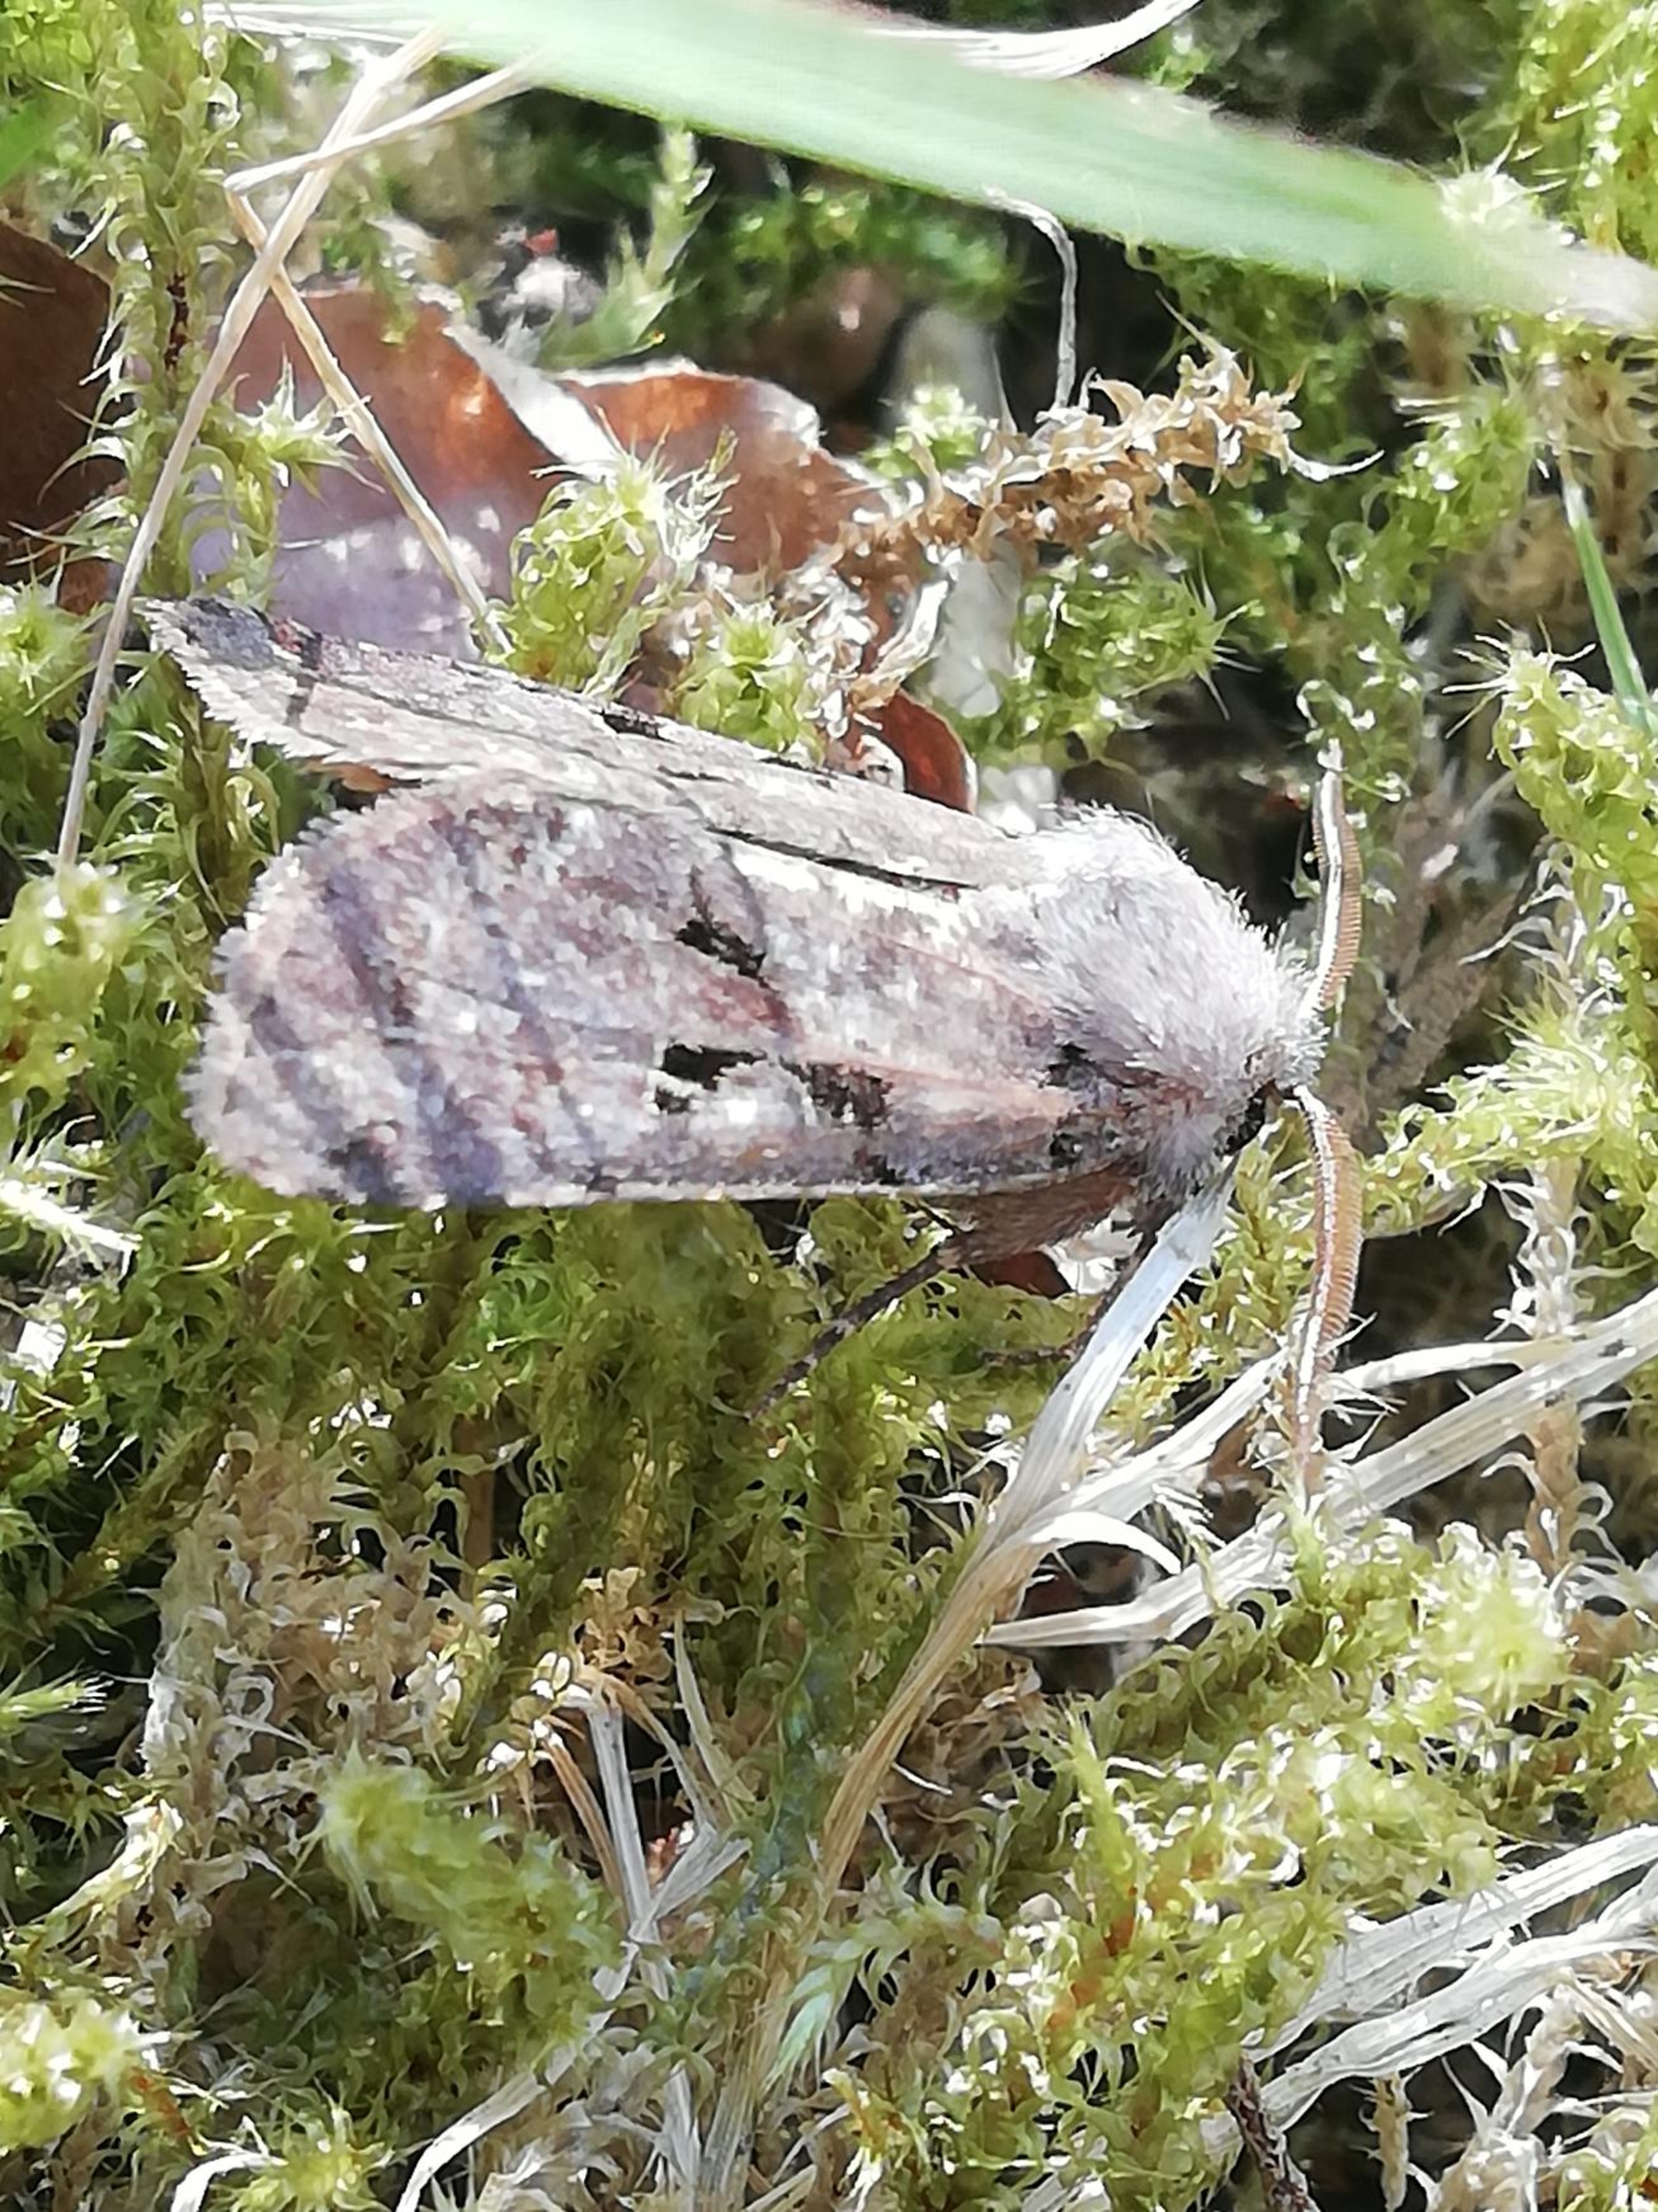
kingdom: Animalia
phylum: Arthropoda
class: Insecta
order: Lepidoptera
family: Noctuidae
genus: Orthosia
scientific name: Orthosia gothica
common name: Gotisk forårsugle
